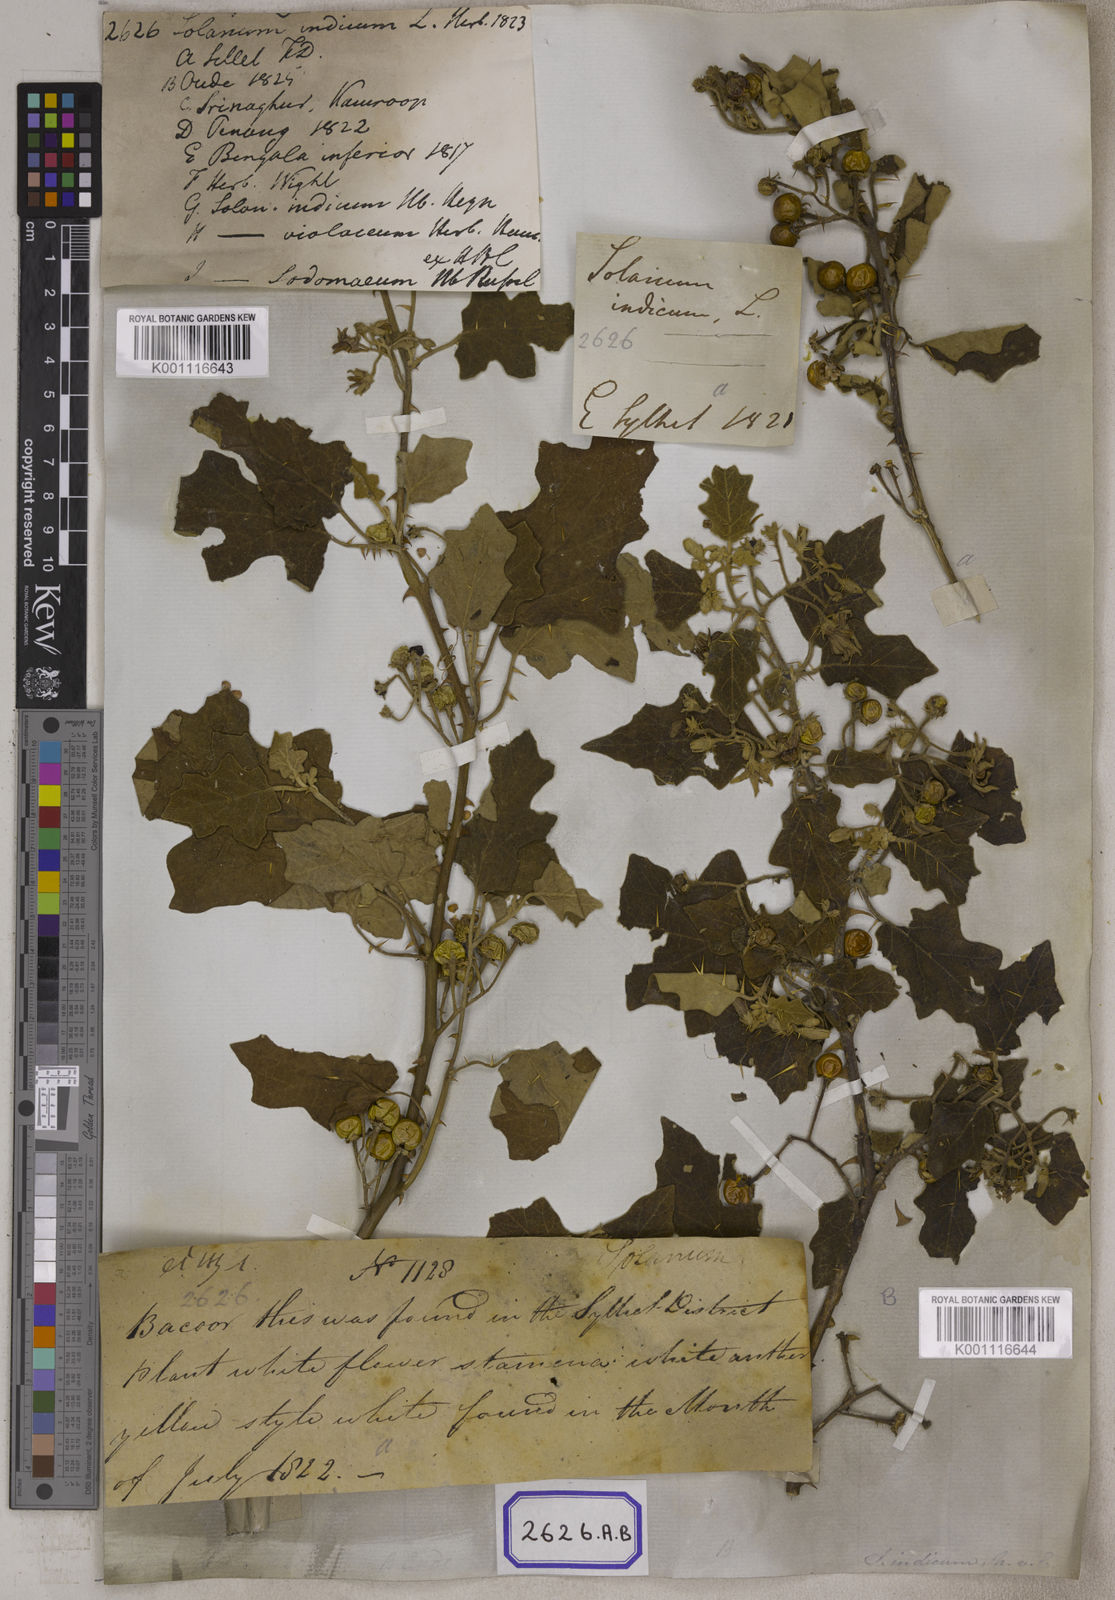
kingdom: Plantae
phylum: Tracheophyta
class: Magnoliopsida
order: Solanales
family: Solanaceae
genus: Solanum
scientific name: Solanum violaceum
